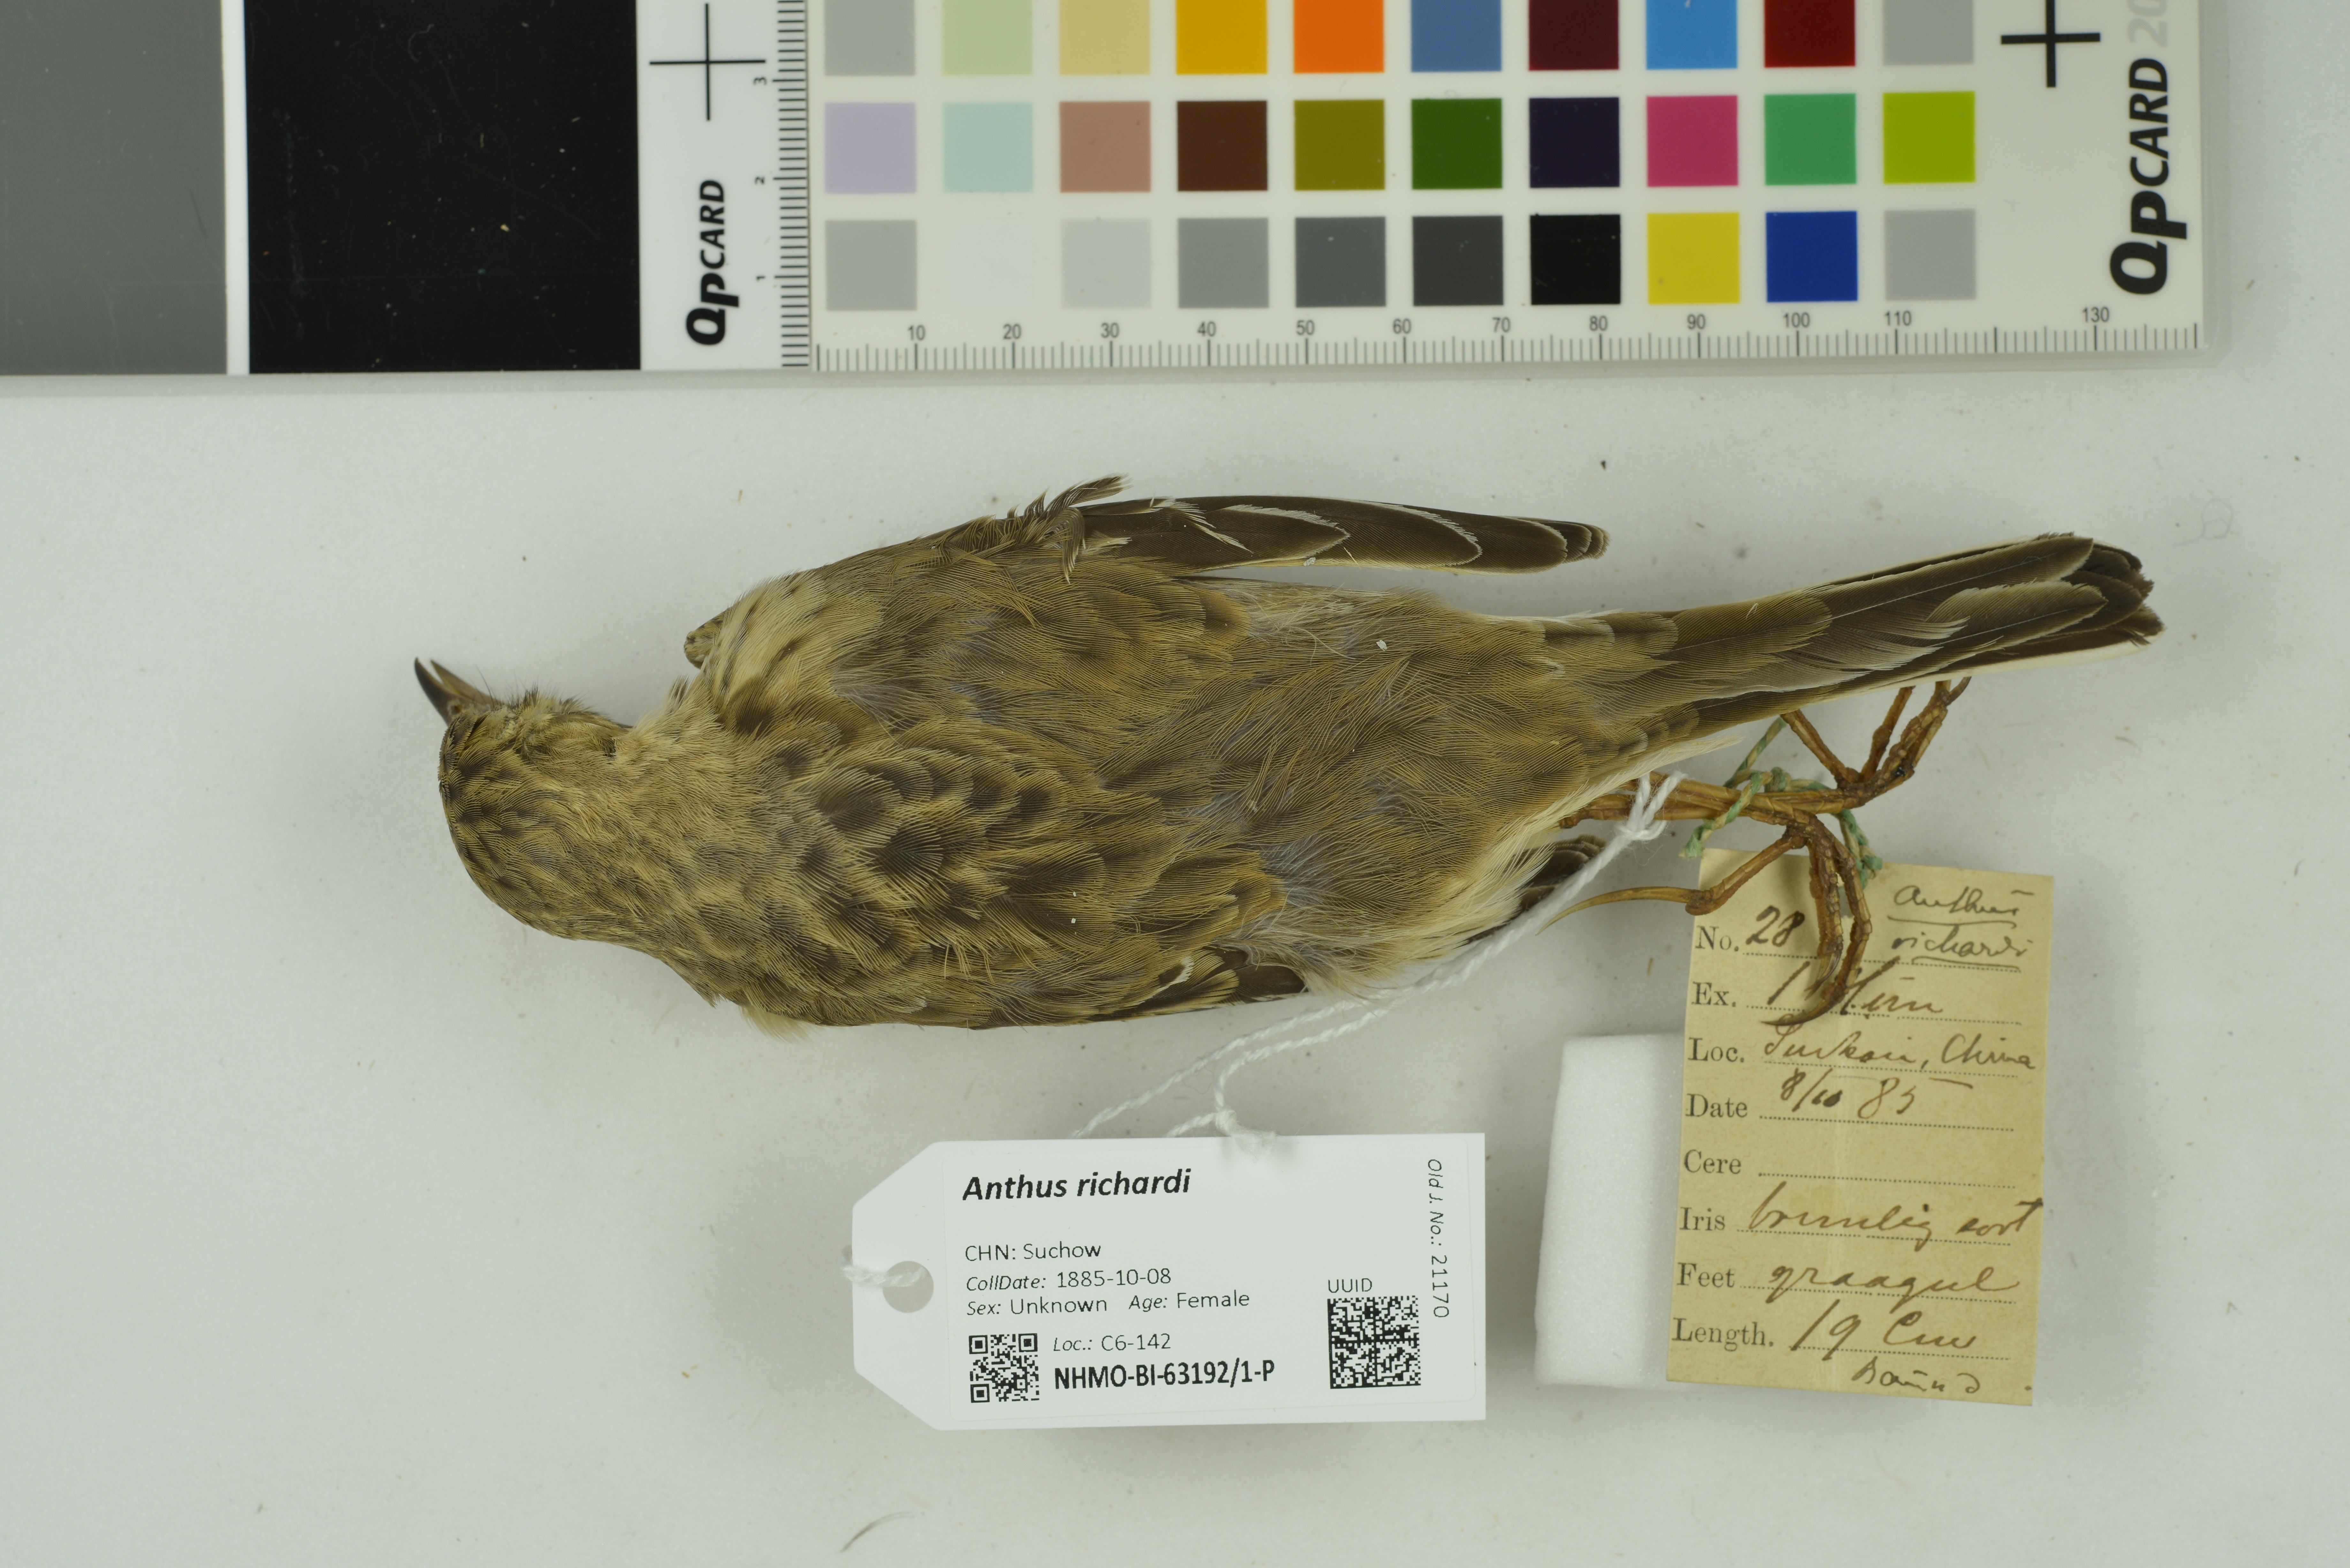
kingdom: Animalia
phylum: Chordata
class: Aves
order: Passeriformes
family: Motacillidae
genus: Anthus
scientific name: Anthus richardi
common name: Richard's pipit
